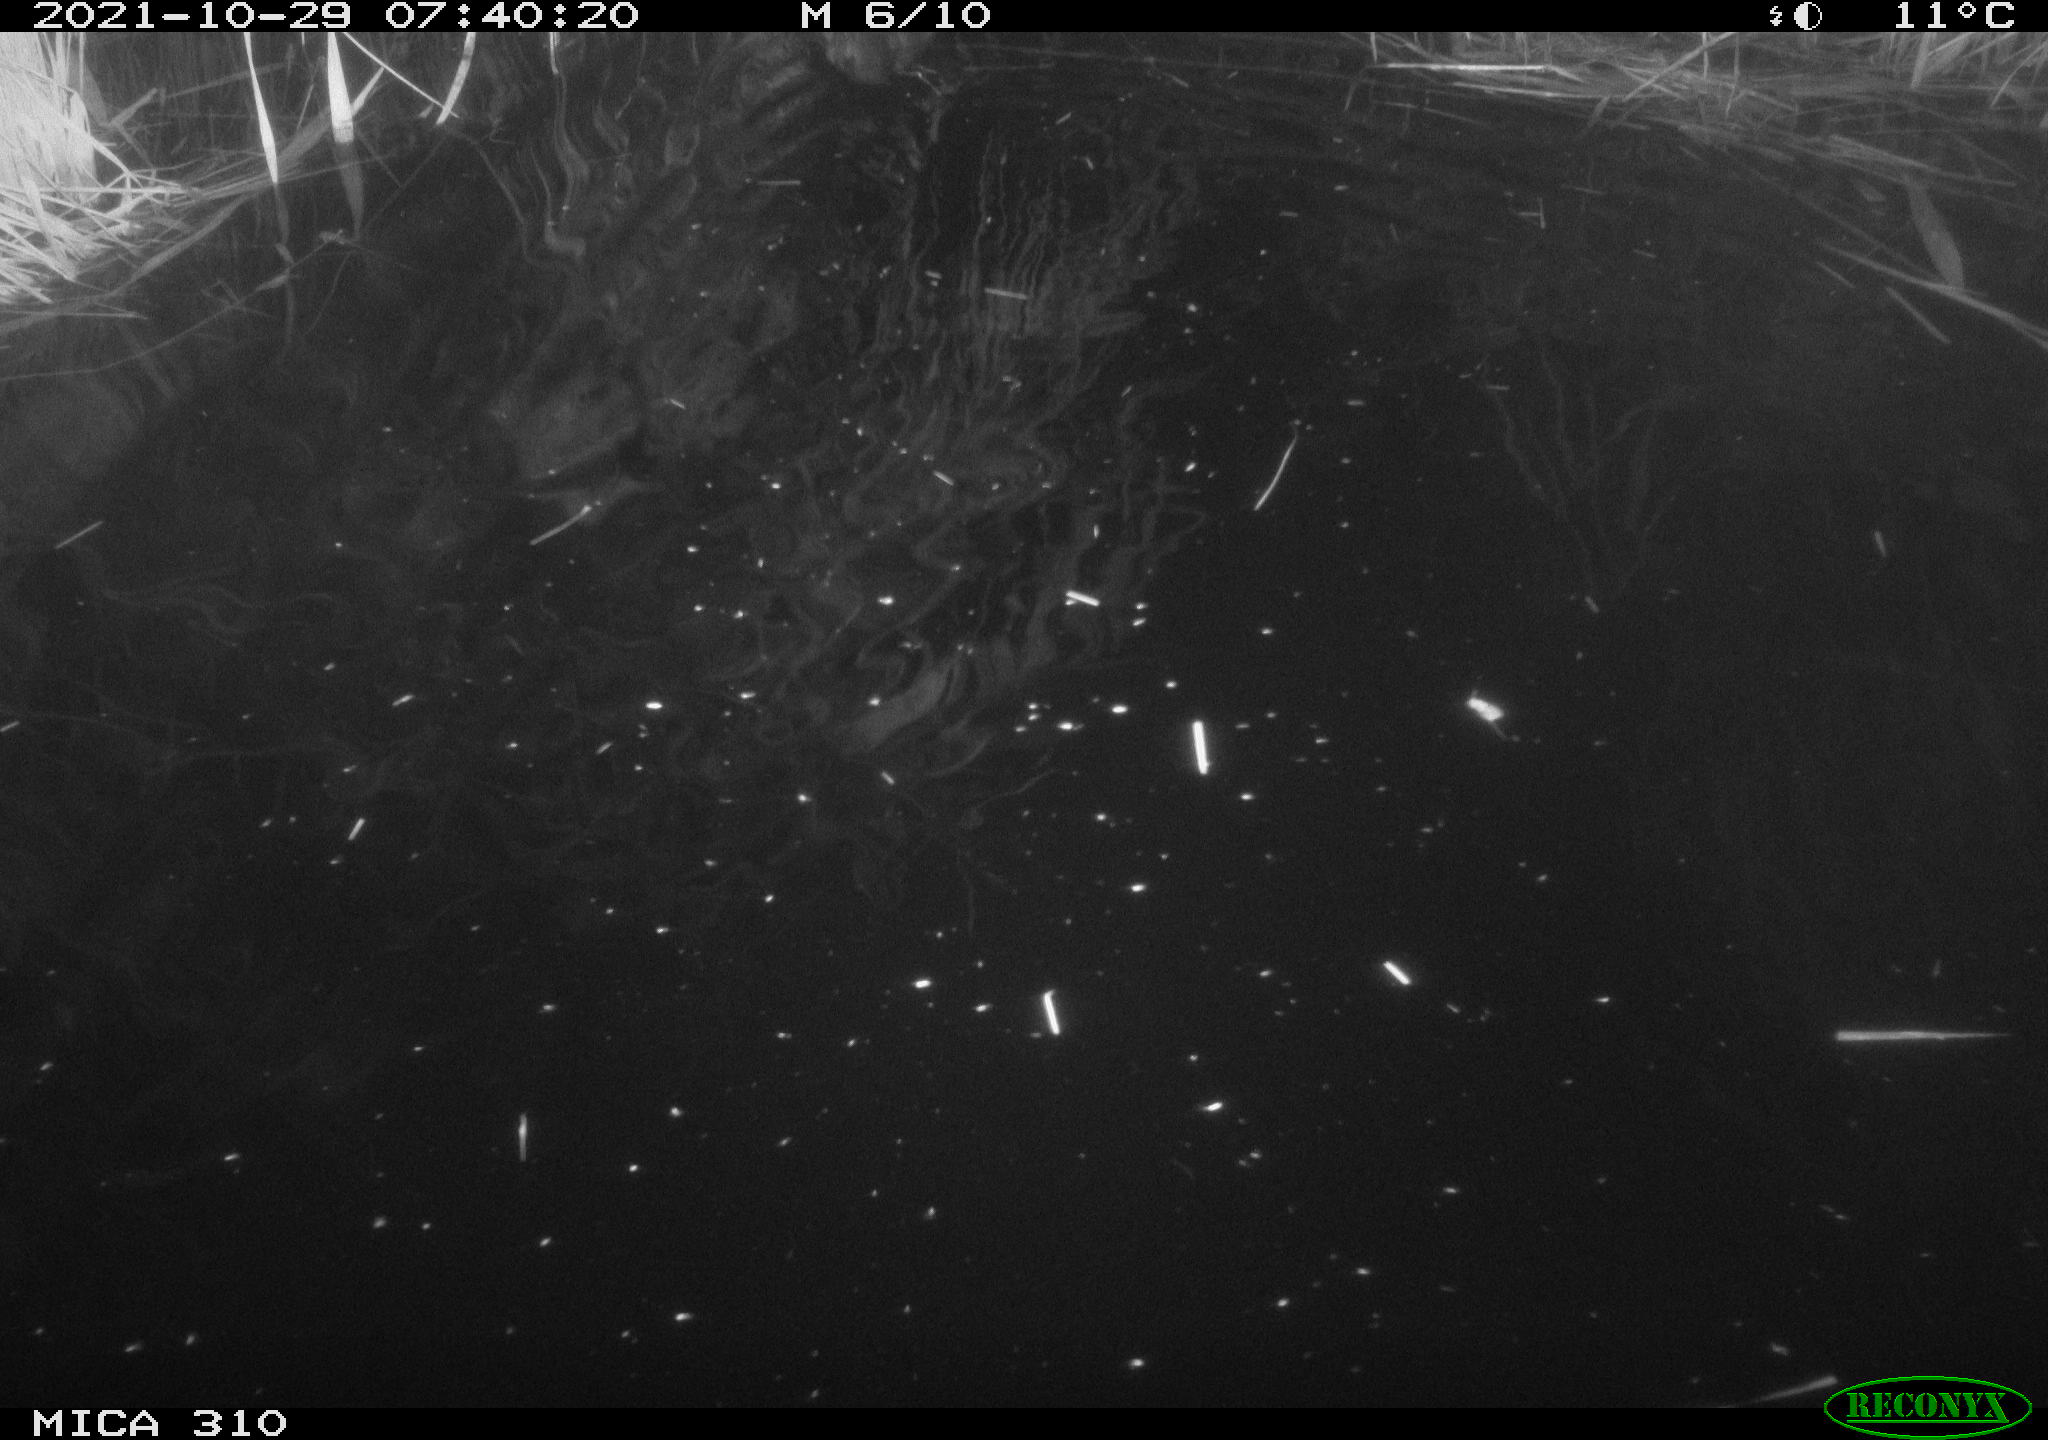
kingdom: Animalia
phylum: Chordata
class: Aves
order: Gruiformes
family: Rallidae
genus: Fulica
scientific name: Fulica atra
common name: Eurasian coot
